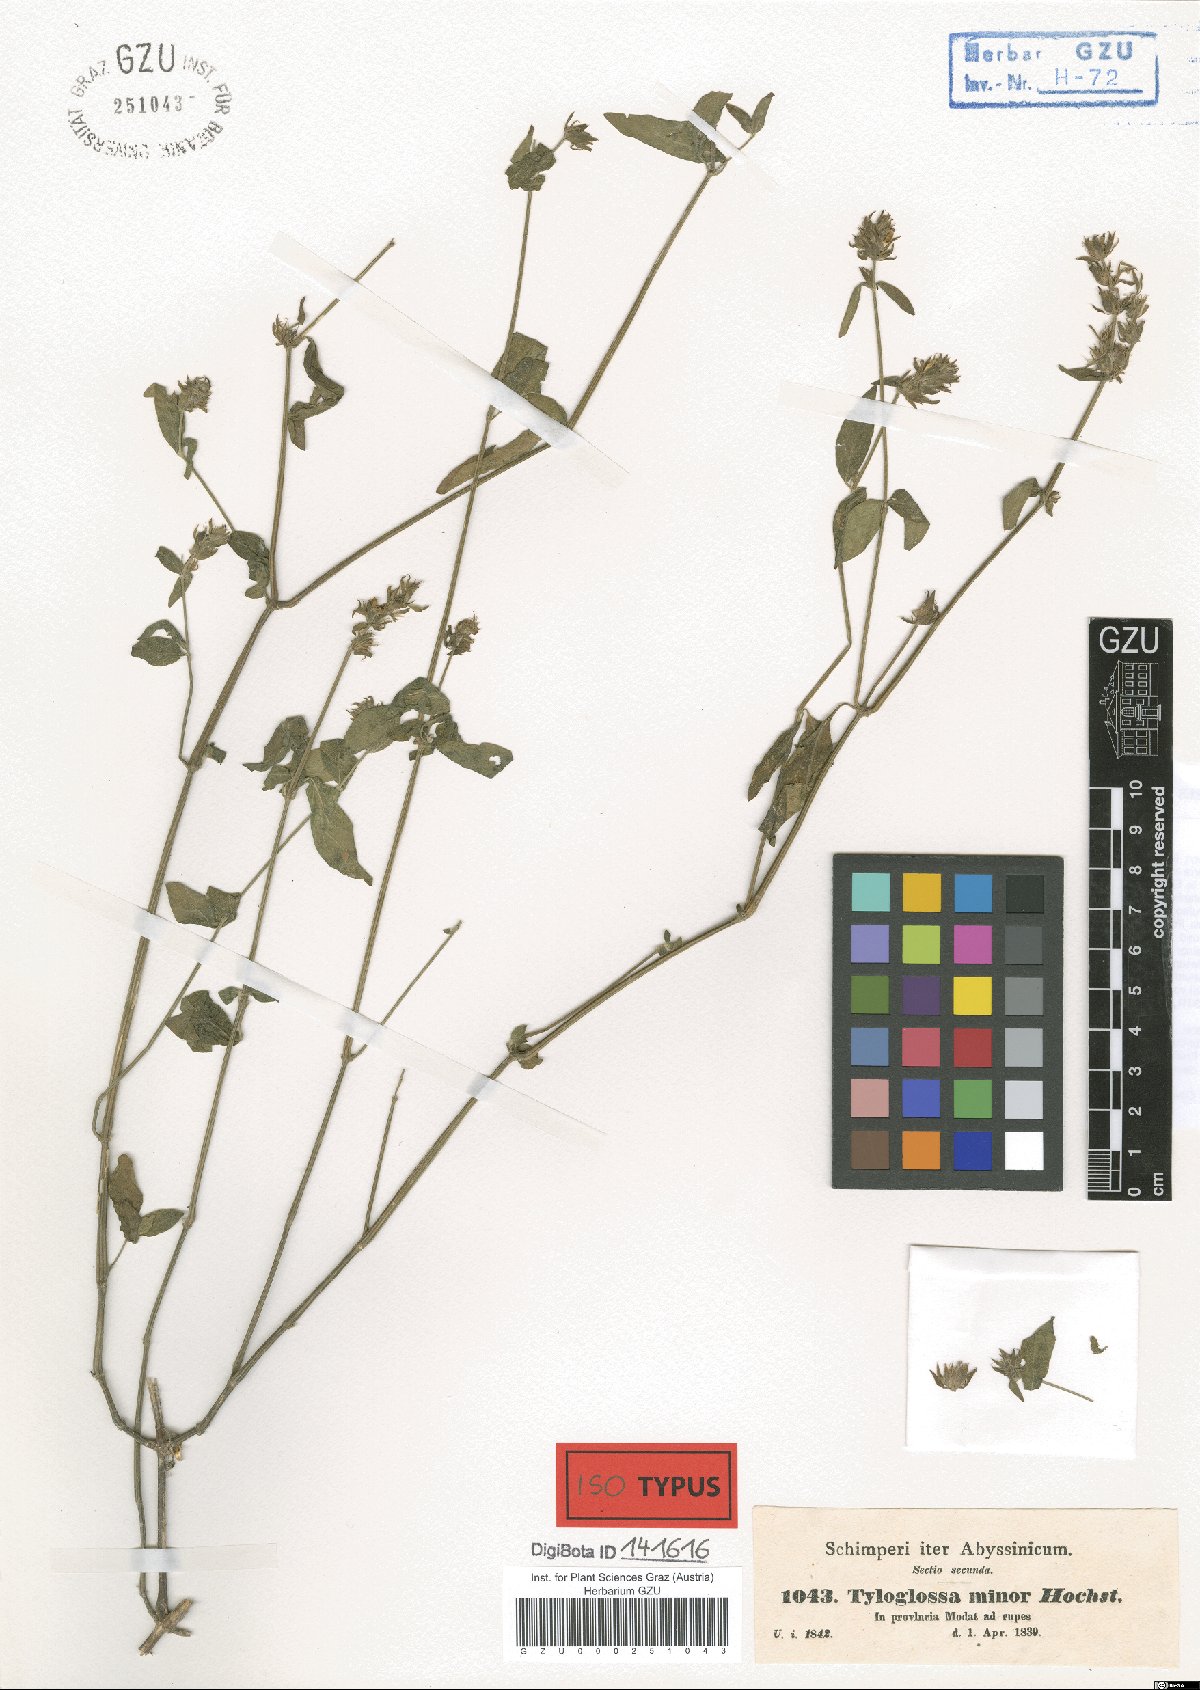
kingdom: Plantae
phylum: Tracheophyta
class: Magnoliopsida
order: Lamiales
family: Acanthaceae
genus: Justicia
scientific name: Justicia flava
